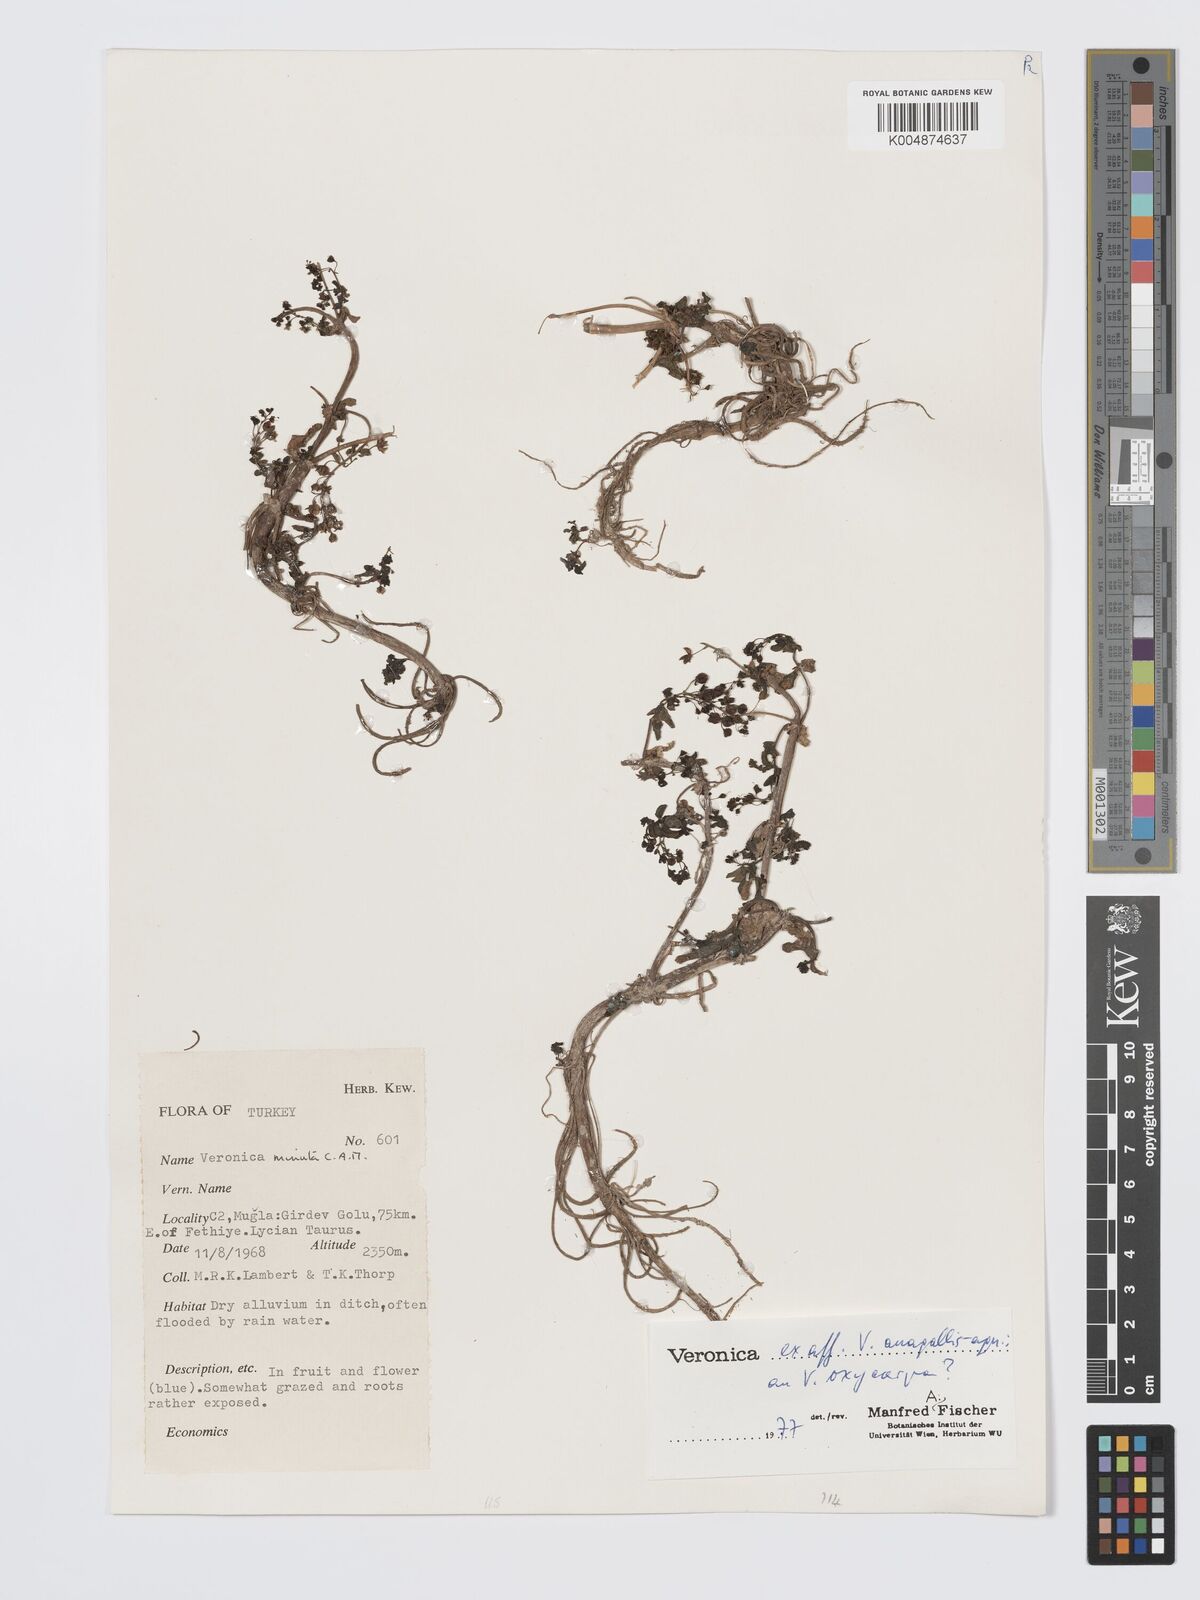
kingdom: Plantae
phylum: Tracheophyta
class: Magnoliopsida
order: Lamiales
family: Plantaginaceae
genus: Veronica
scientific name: Veronica
